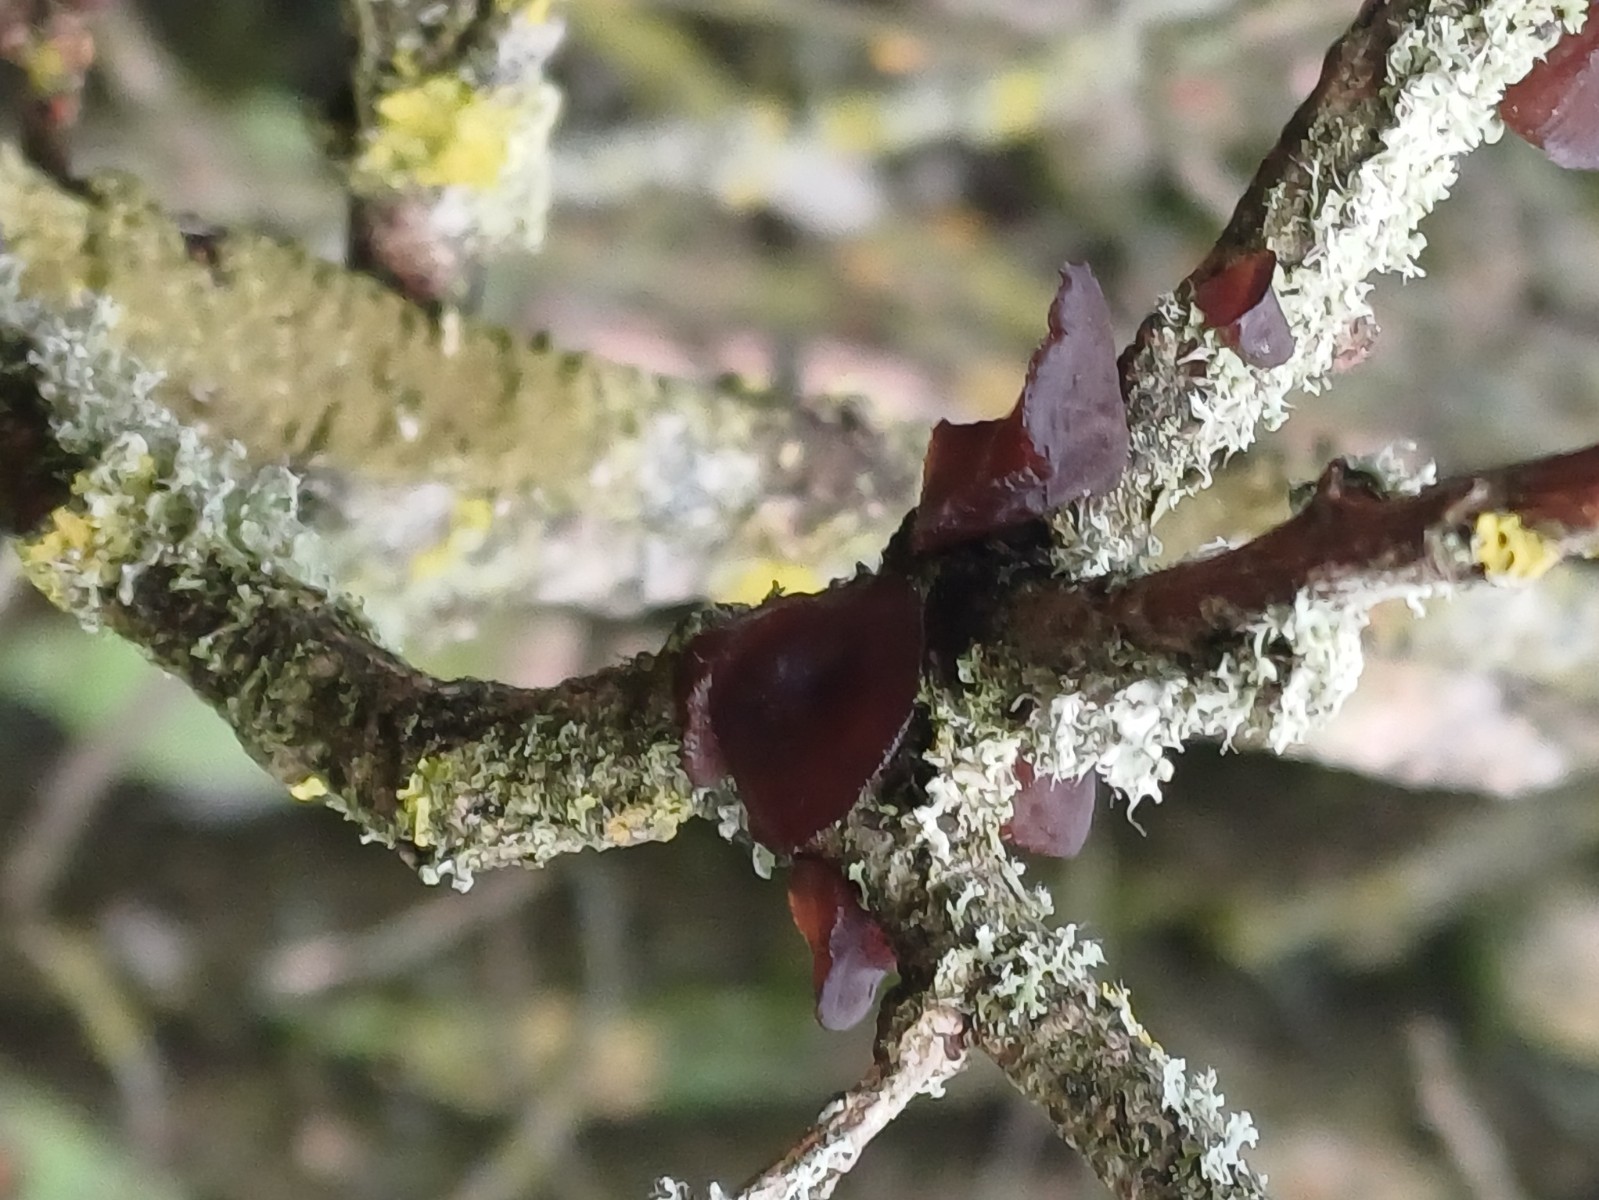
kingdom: Fungi
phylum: Basidiomycota
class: Agaricomycetes
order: Auriculariales
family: Auriculariaceae
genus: Exidia
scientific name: Exidia recisa
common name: pile-bævretop
